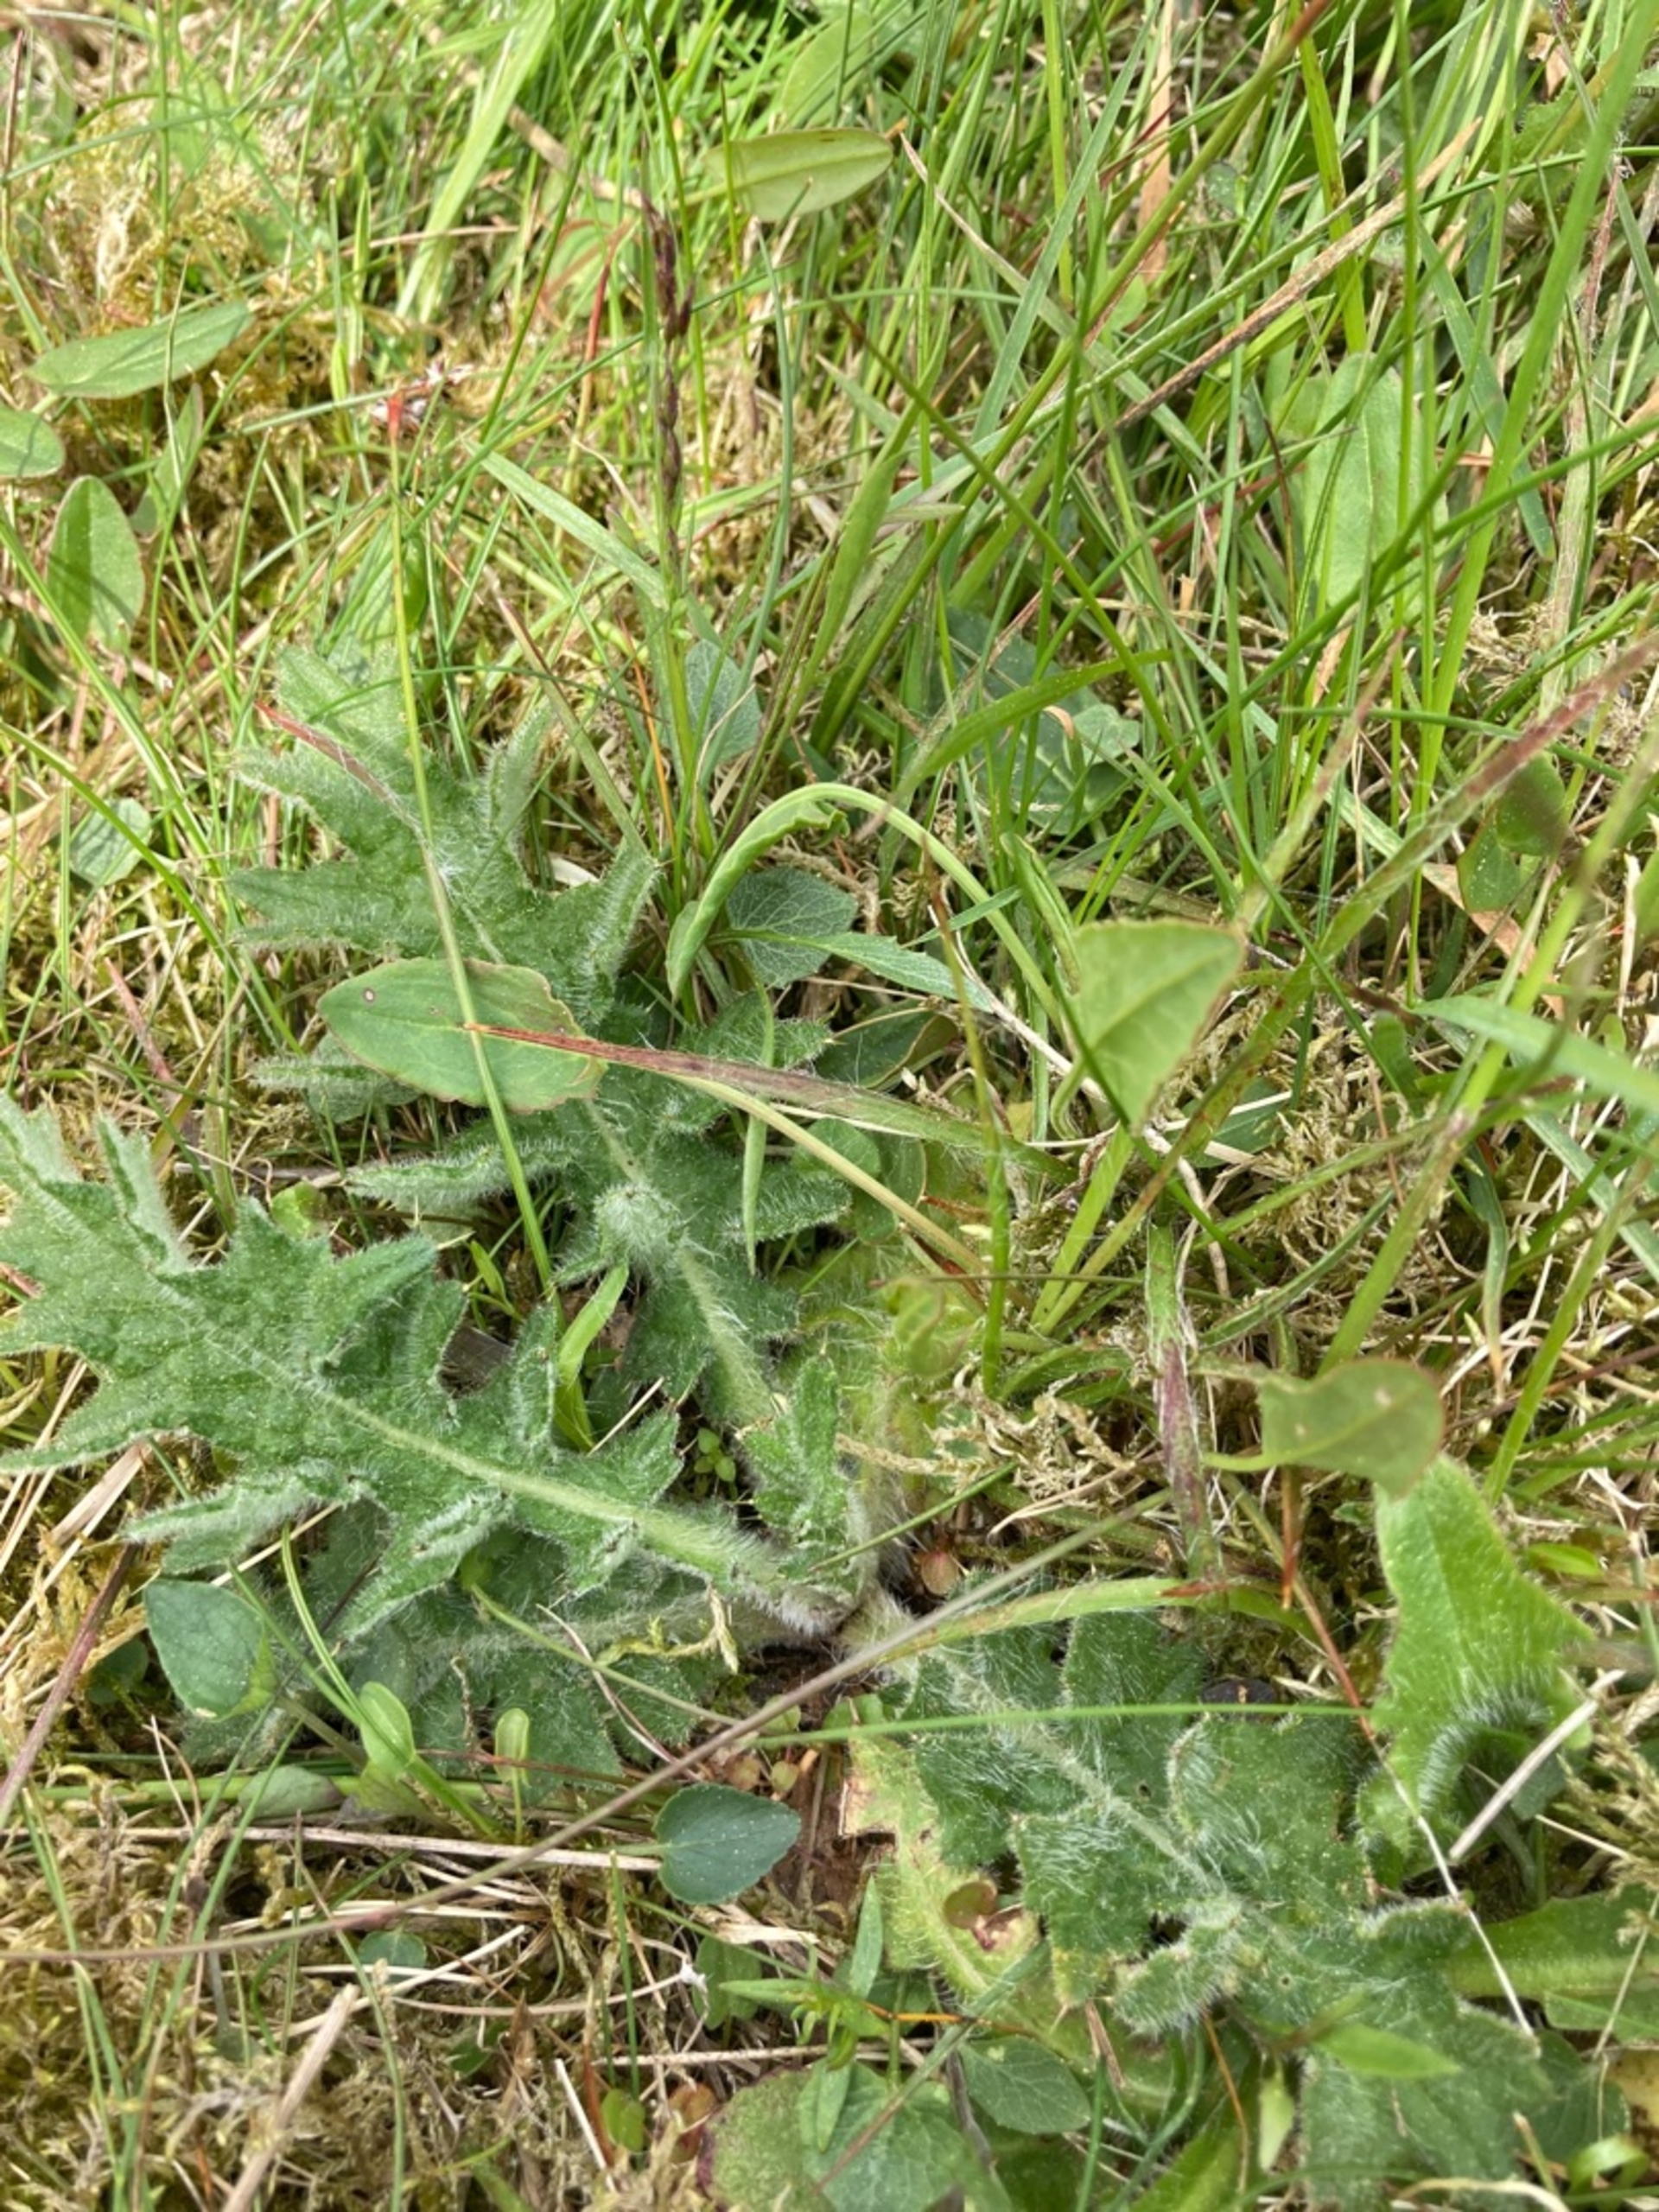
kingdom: Plantae
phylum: Tracheophyta
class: Magnoliopsida
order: Asterales
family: Asteraceae
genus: Cirsium
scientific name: Cirsium vulgare
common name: Horse-tidsel
